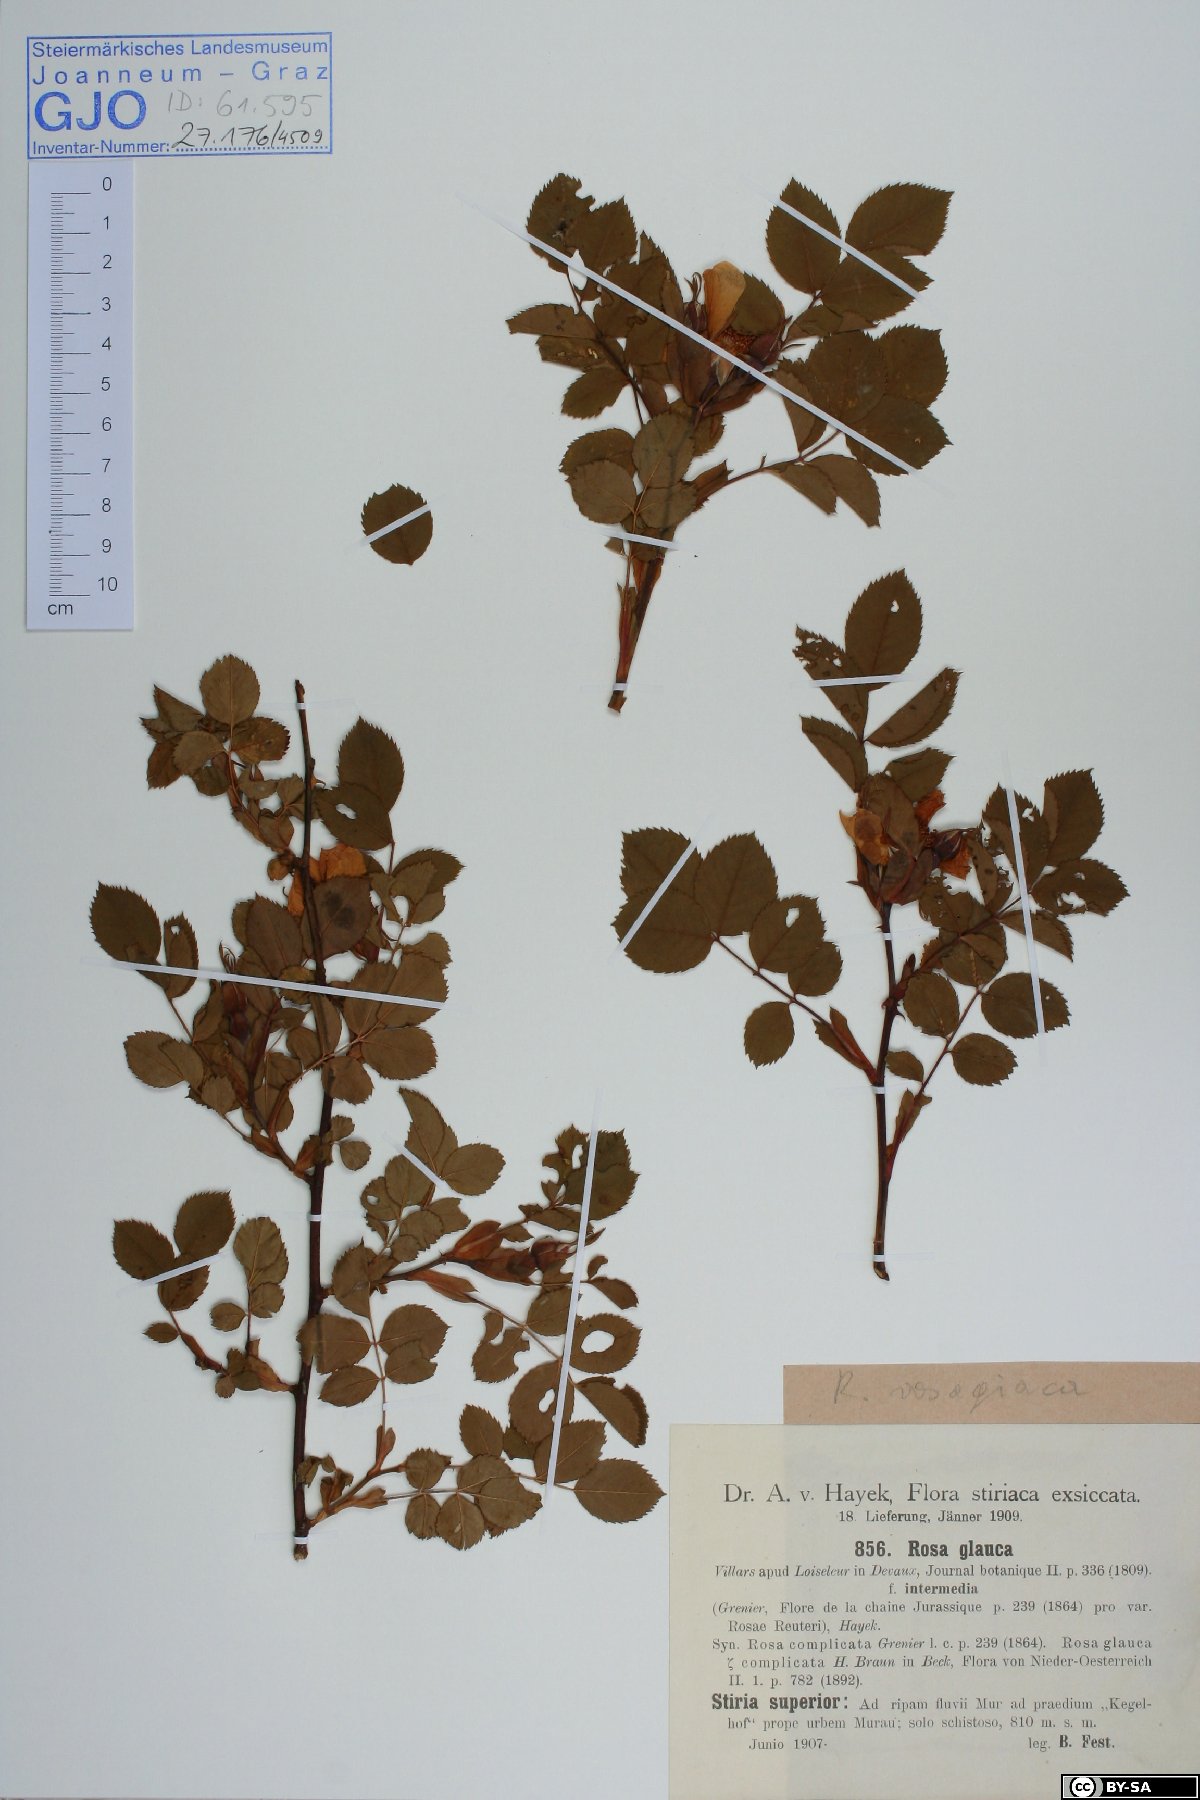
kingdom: Plantae
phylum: Tracheophyta
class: Magnoliopsida
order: Rosales
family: Rosaceae
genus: Rosa
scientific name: Rosa vosagiaca
